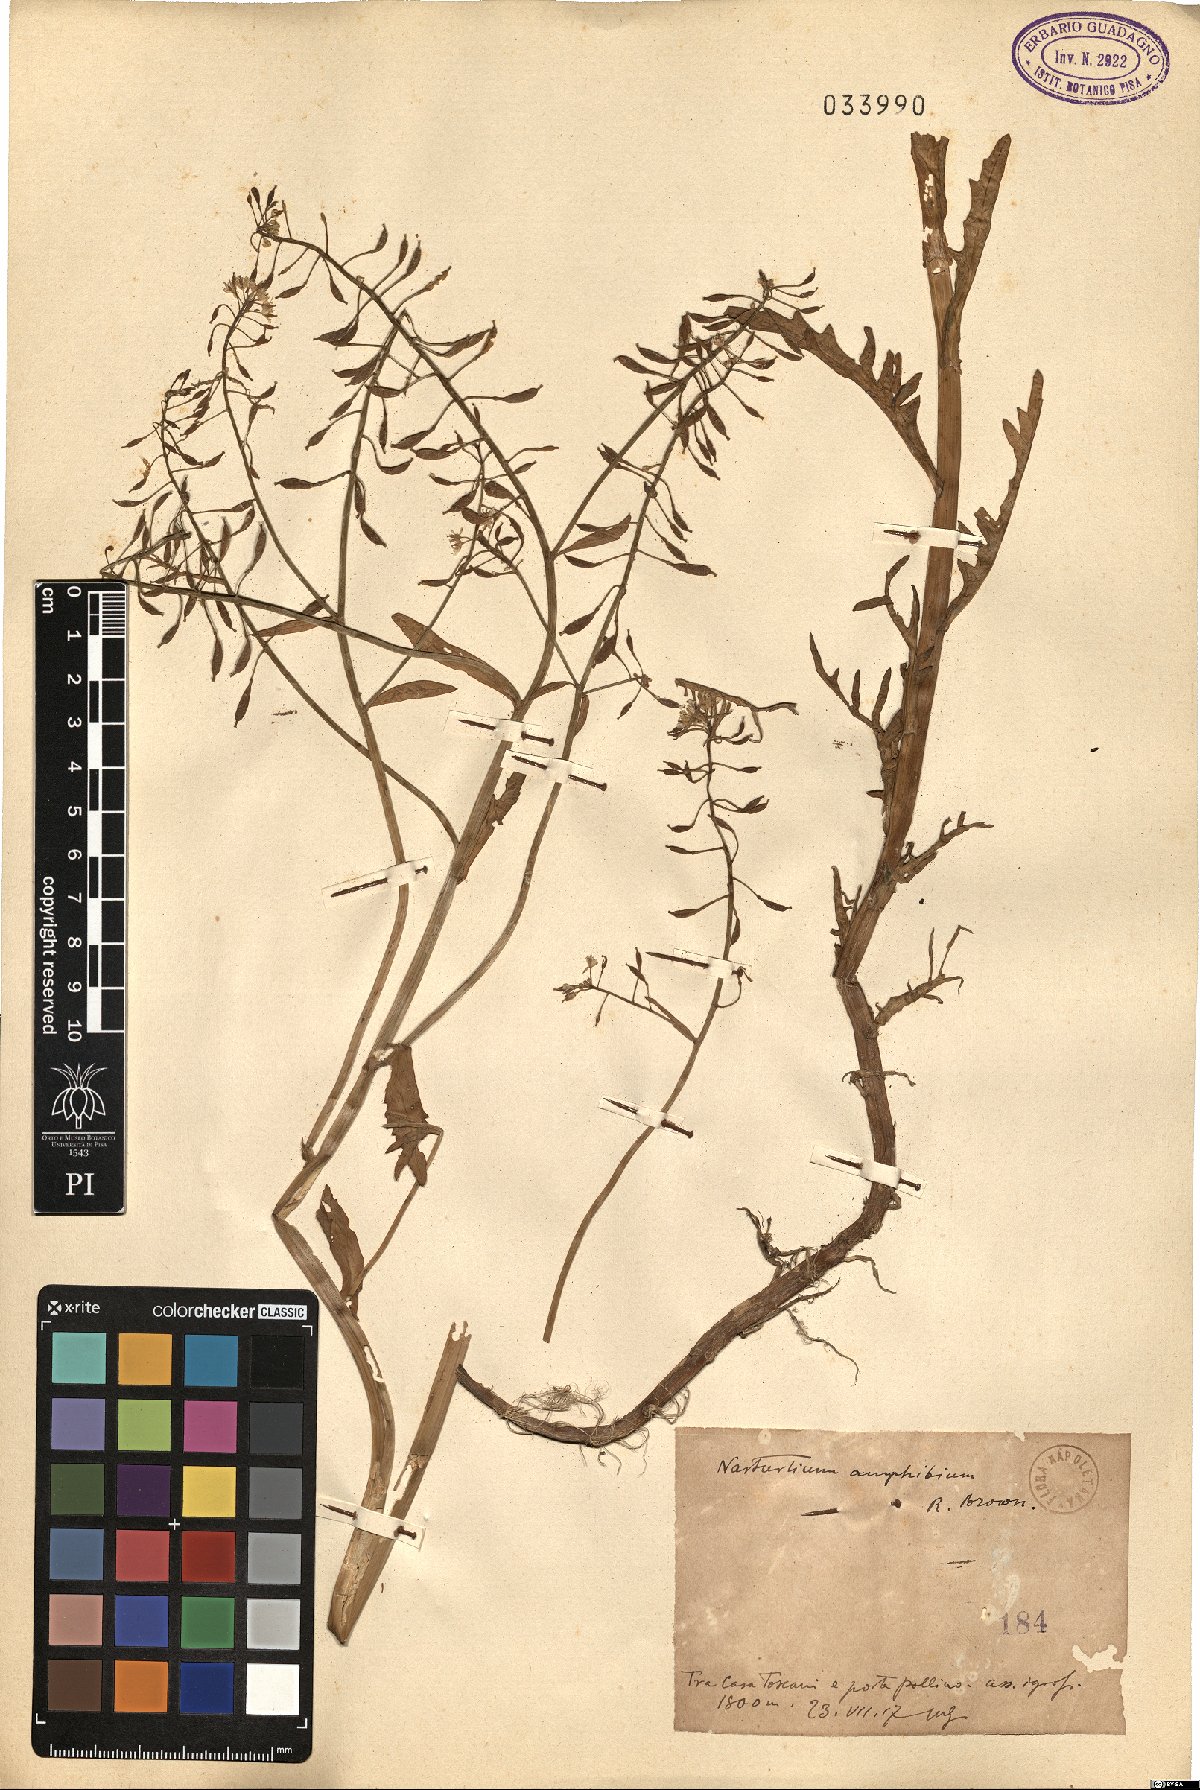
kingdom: Plantae
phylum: Tracheophyta
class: Magnoliopsida
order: Brassicales
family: Brassicaceae
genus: Rorippa
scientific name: Rorippa amphibia
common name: Great yellow-cress
